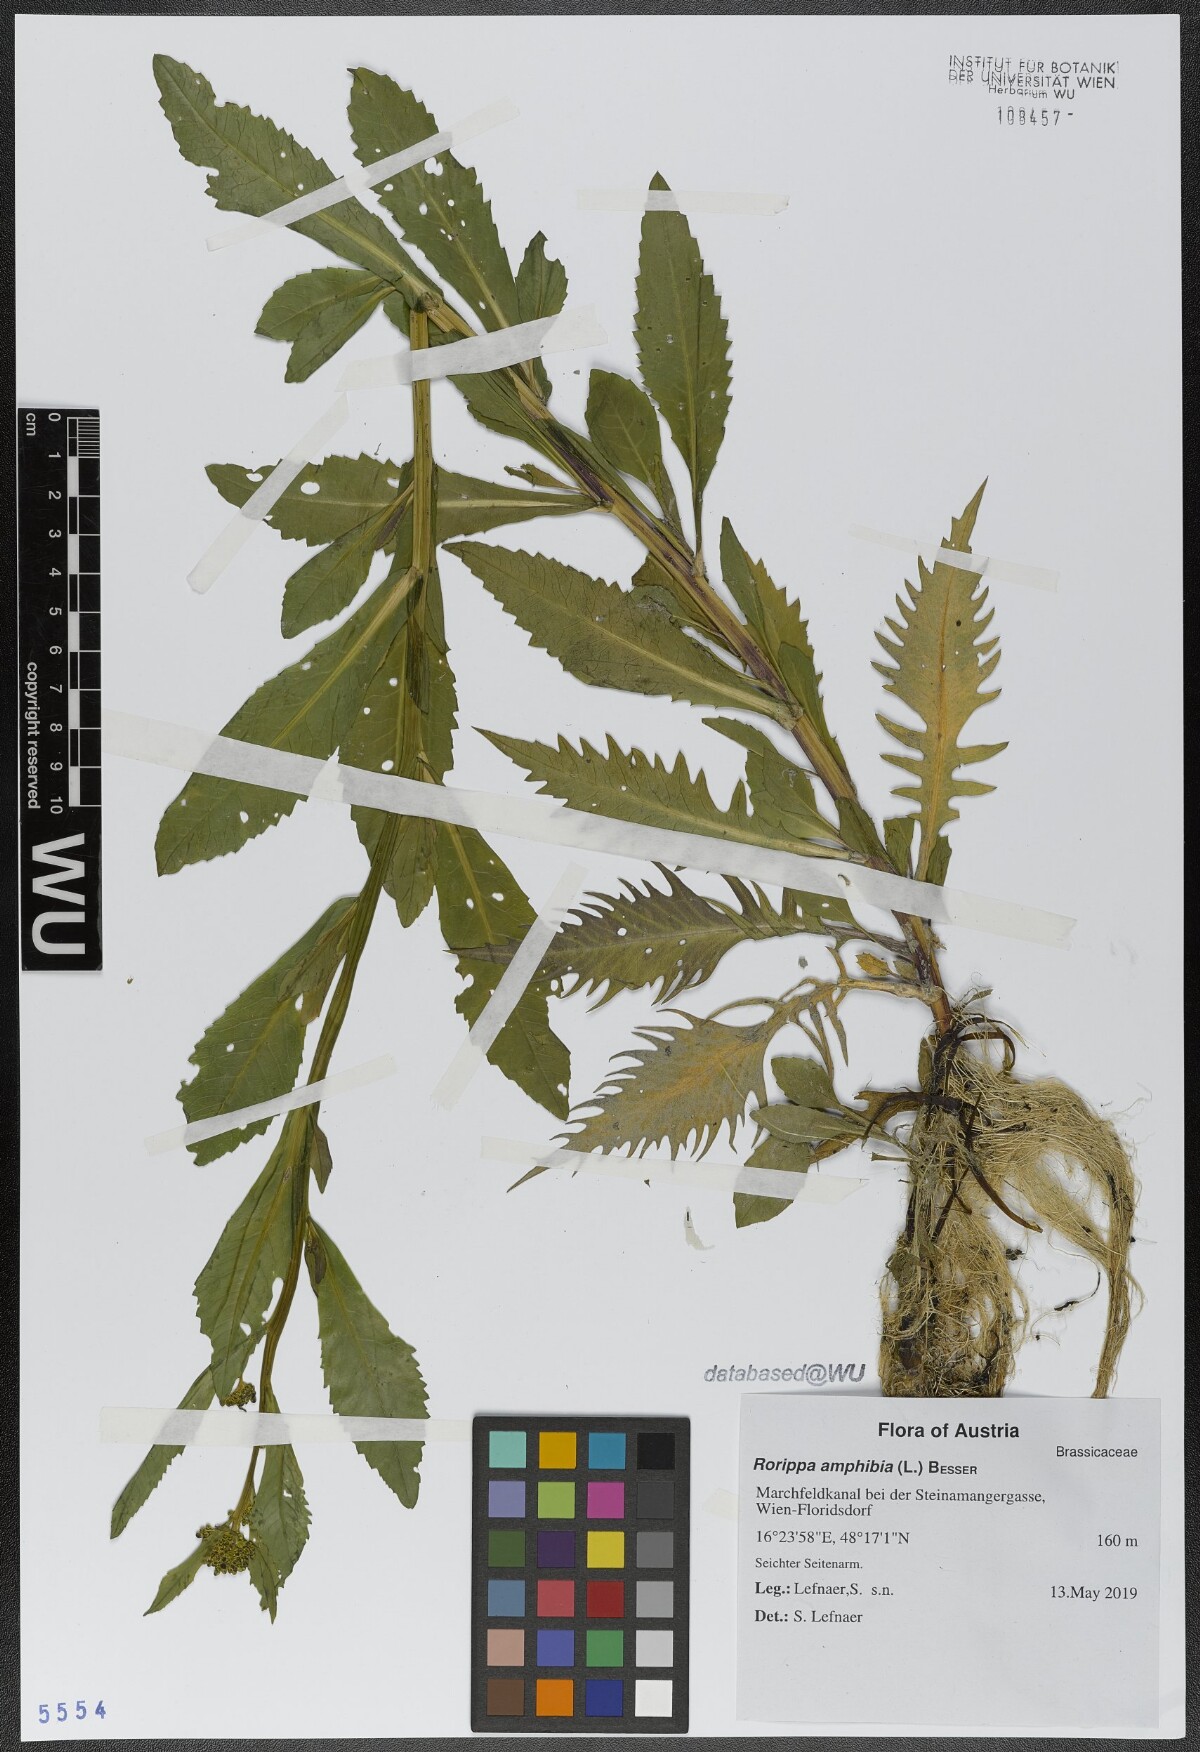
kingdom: Plantae
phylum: Tracheophyta
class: Magnoliopsida
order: Brassicales
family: Brassicaceae
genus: Rorippa
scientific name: Rorippa amphibia
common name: Great yellow-cress
